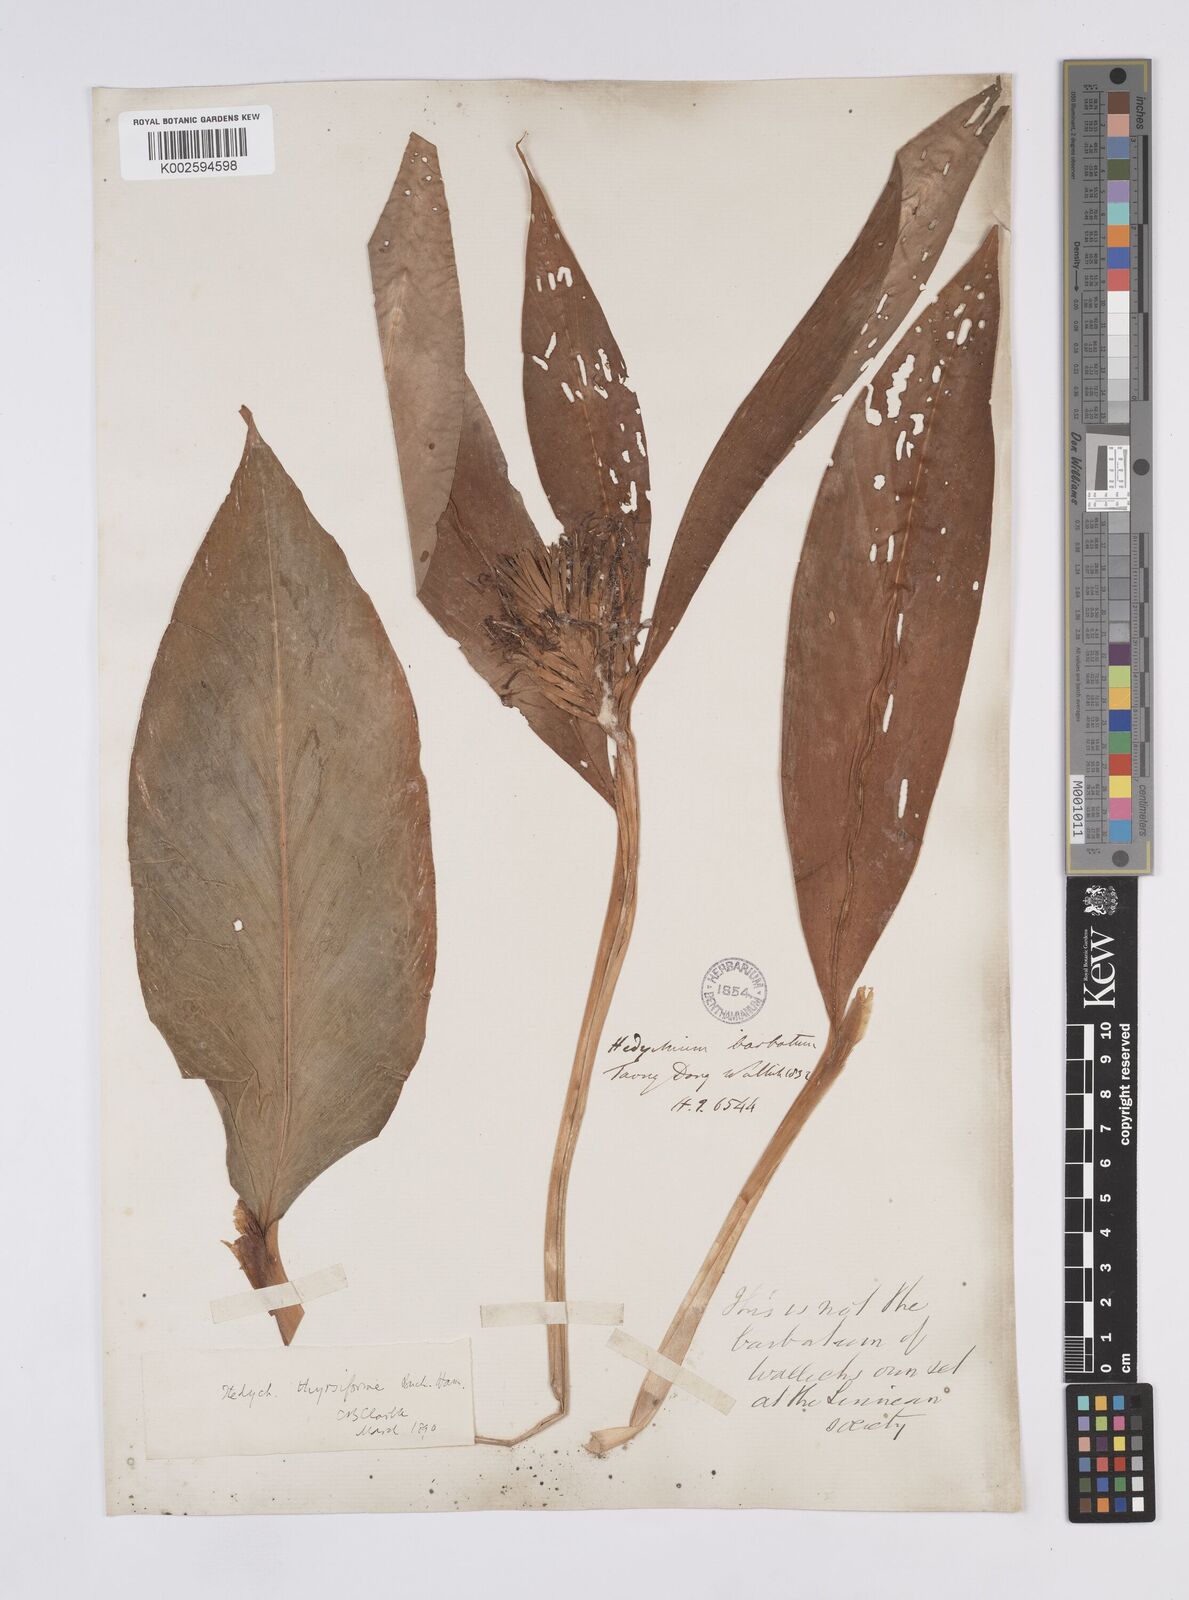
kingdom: Plantae
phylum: Tracheophyta
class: Liliopsida
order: Zingiberales
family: Zingiberaceae
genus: Hedychium
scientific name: Hedychium thyrsiforme
